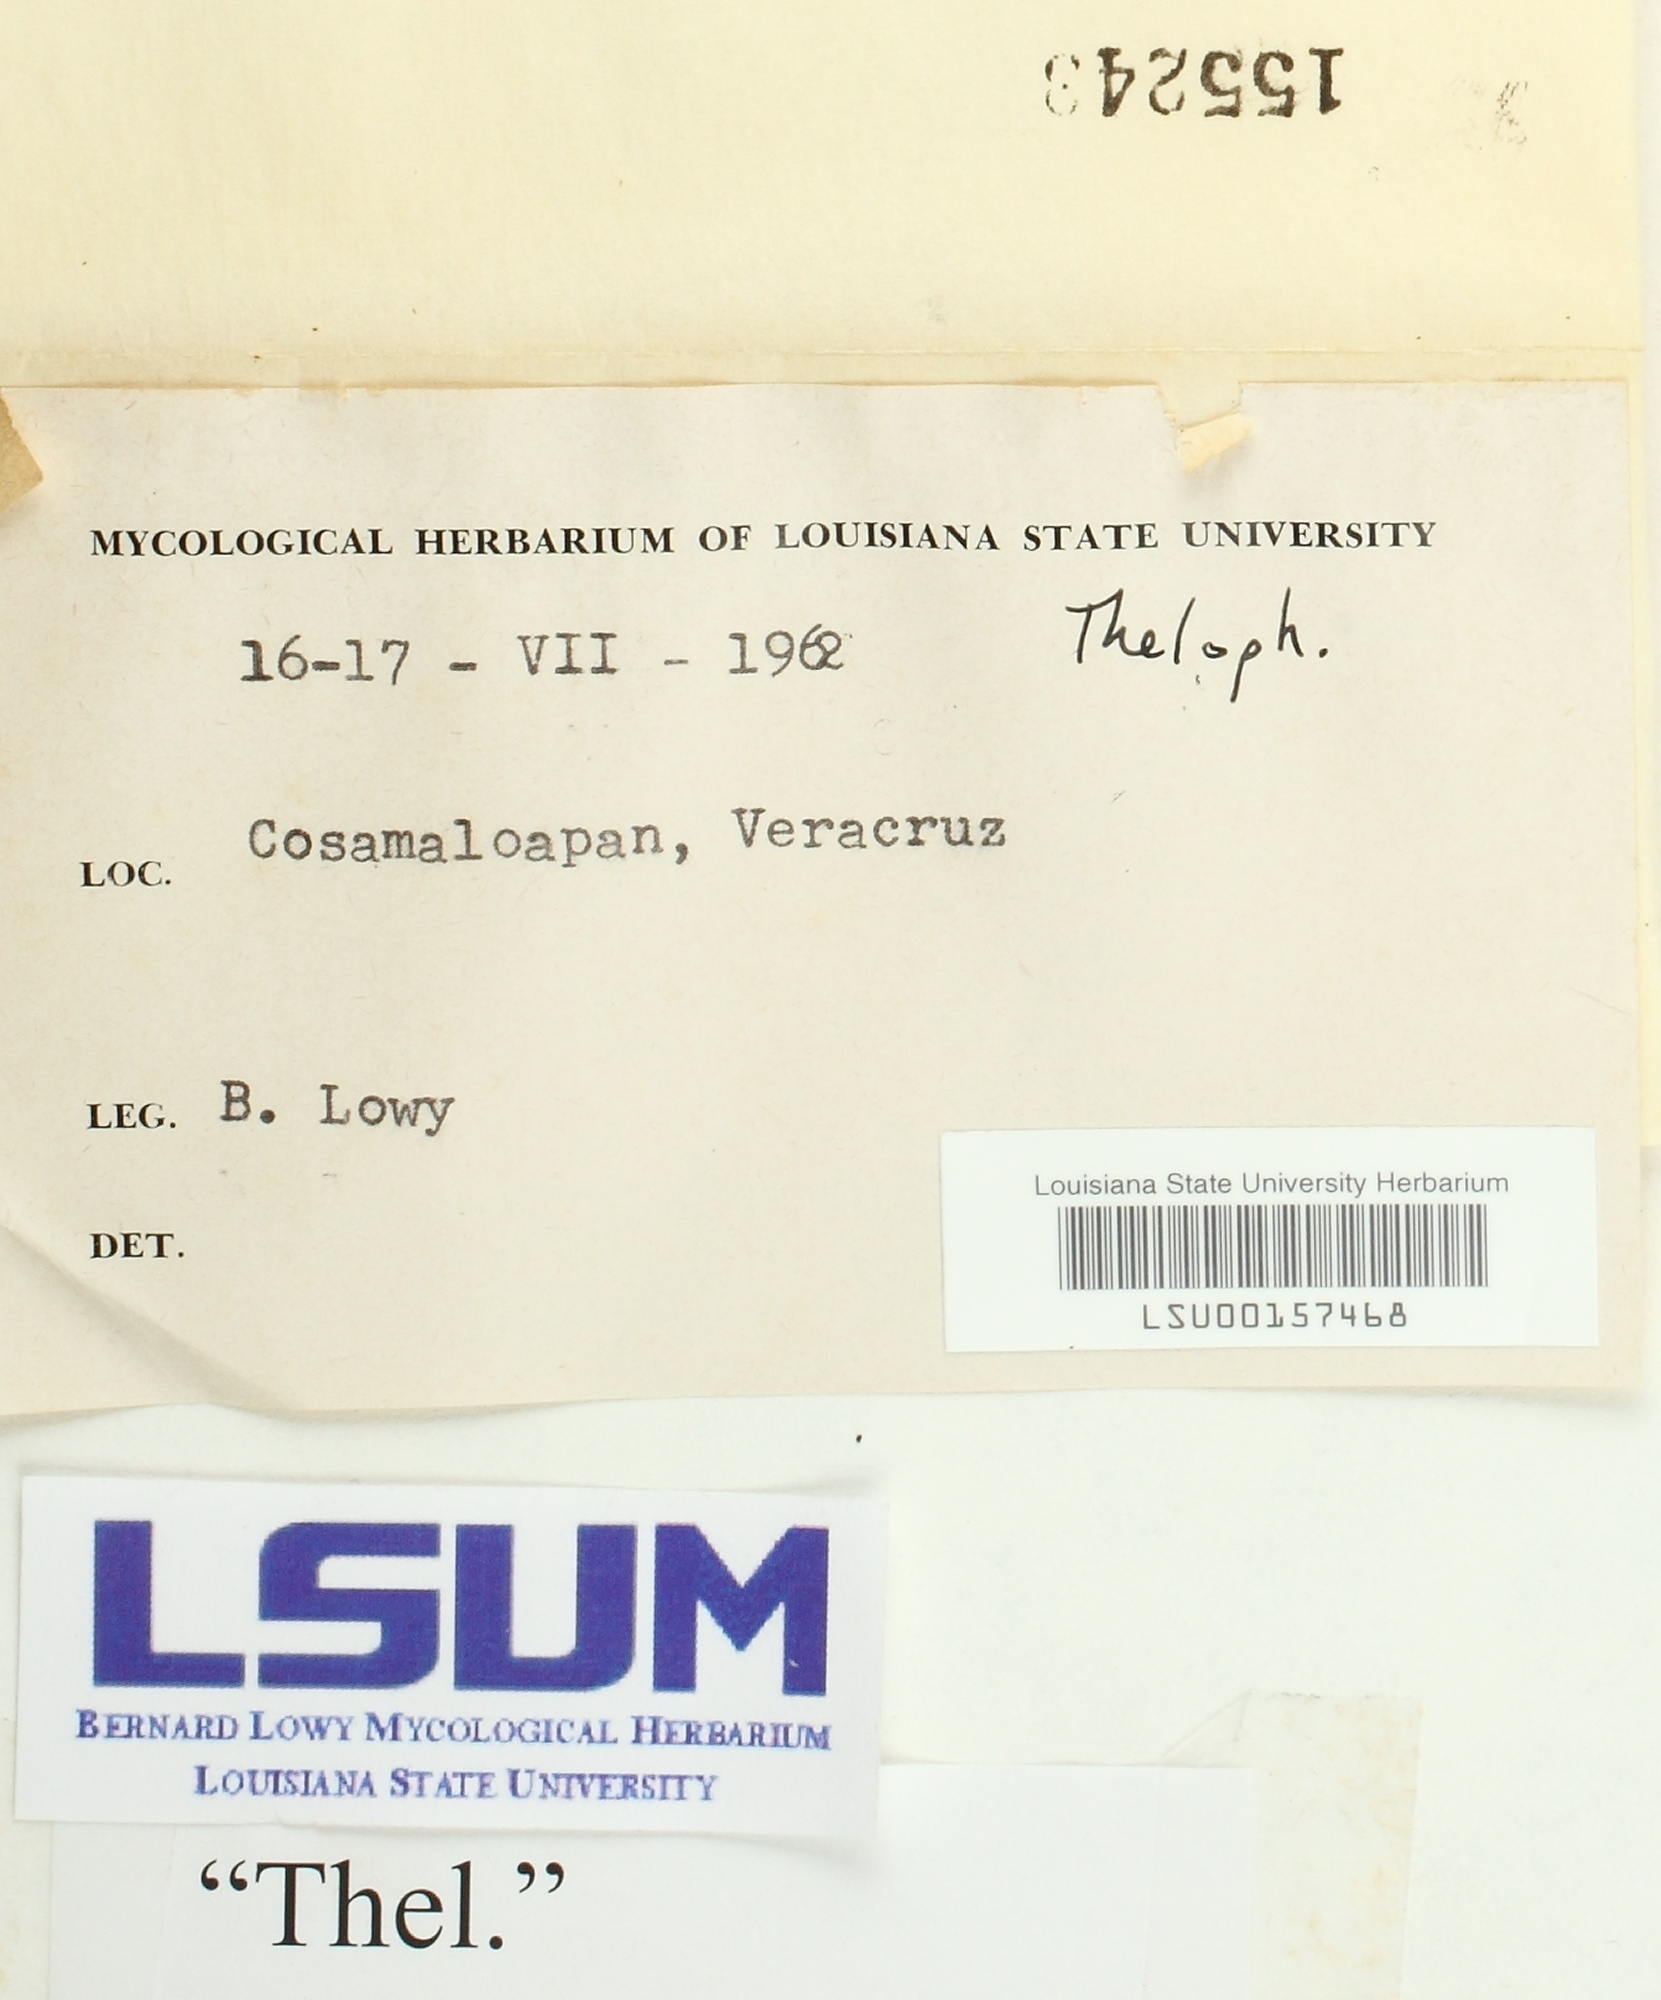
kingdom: Fungi
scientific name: Fungi
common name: Fungi
